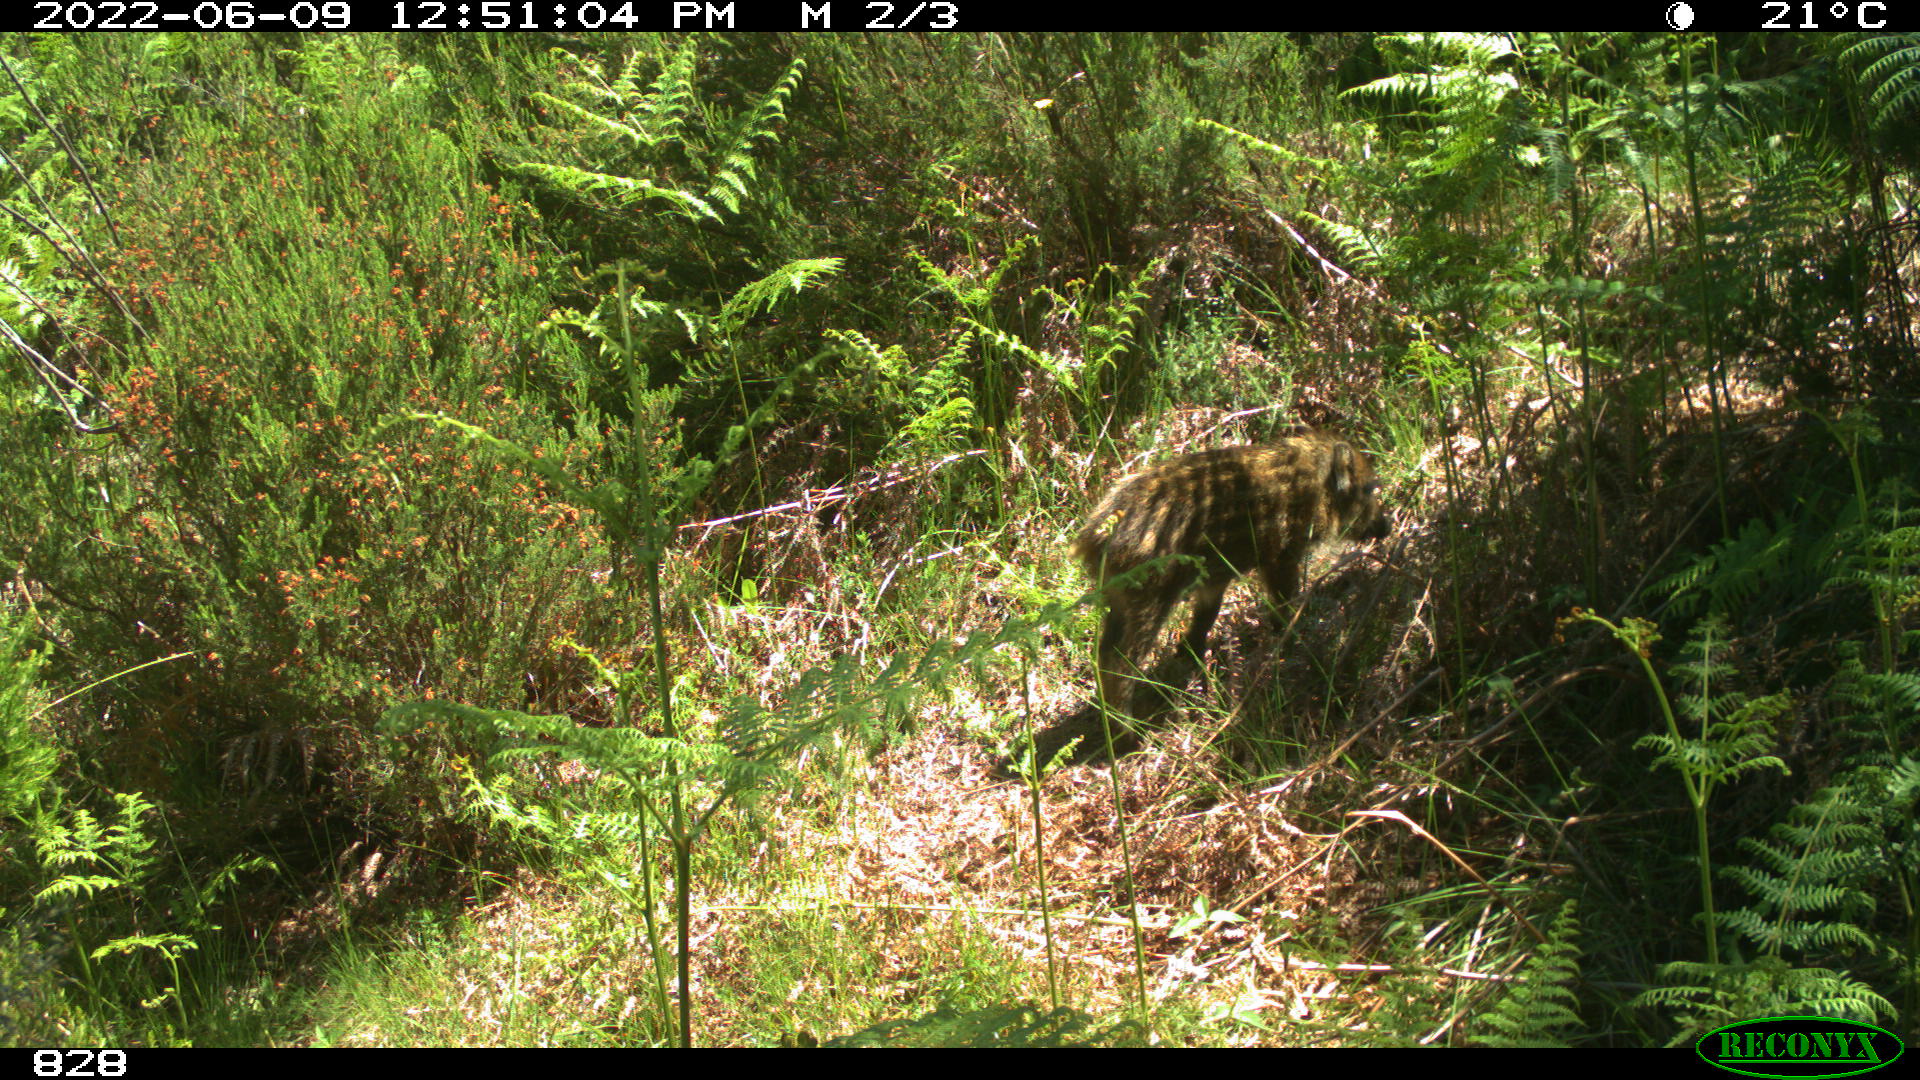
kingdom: Animalia
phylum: Chordata
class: Mammalia
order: Artiodactyla
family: Suidae
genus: Sus
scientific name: Sus scrofa
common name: Wild boar
